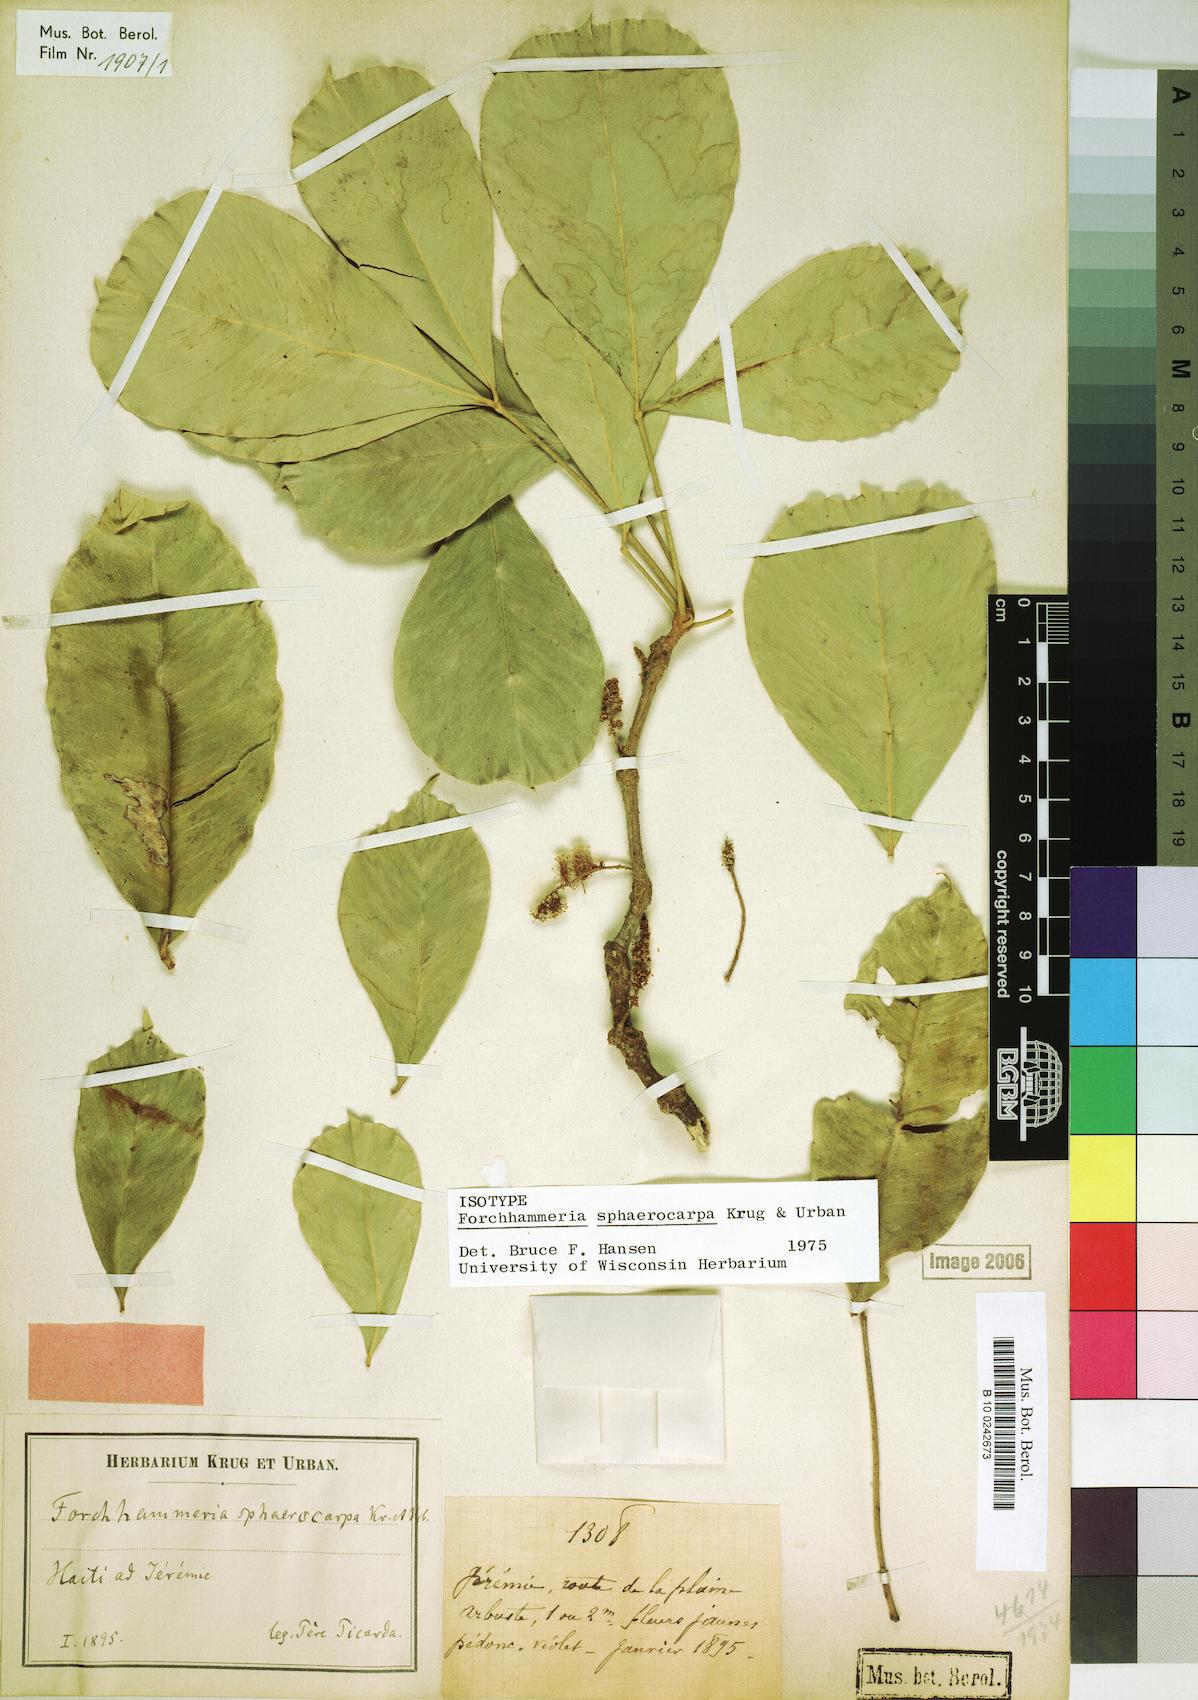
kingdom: Plantae
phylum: Tracheophyta
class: Magnoliopsida
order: Brassicales
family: Stixaceae
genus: Forchhammeria
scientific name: Forchhammeria sphaerocarpa
